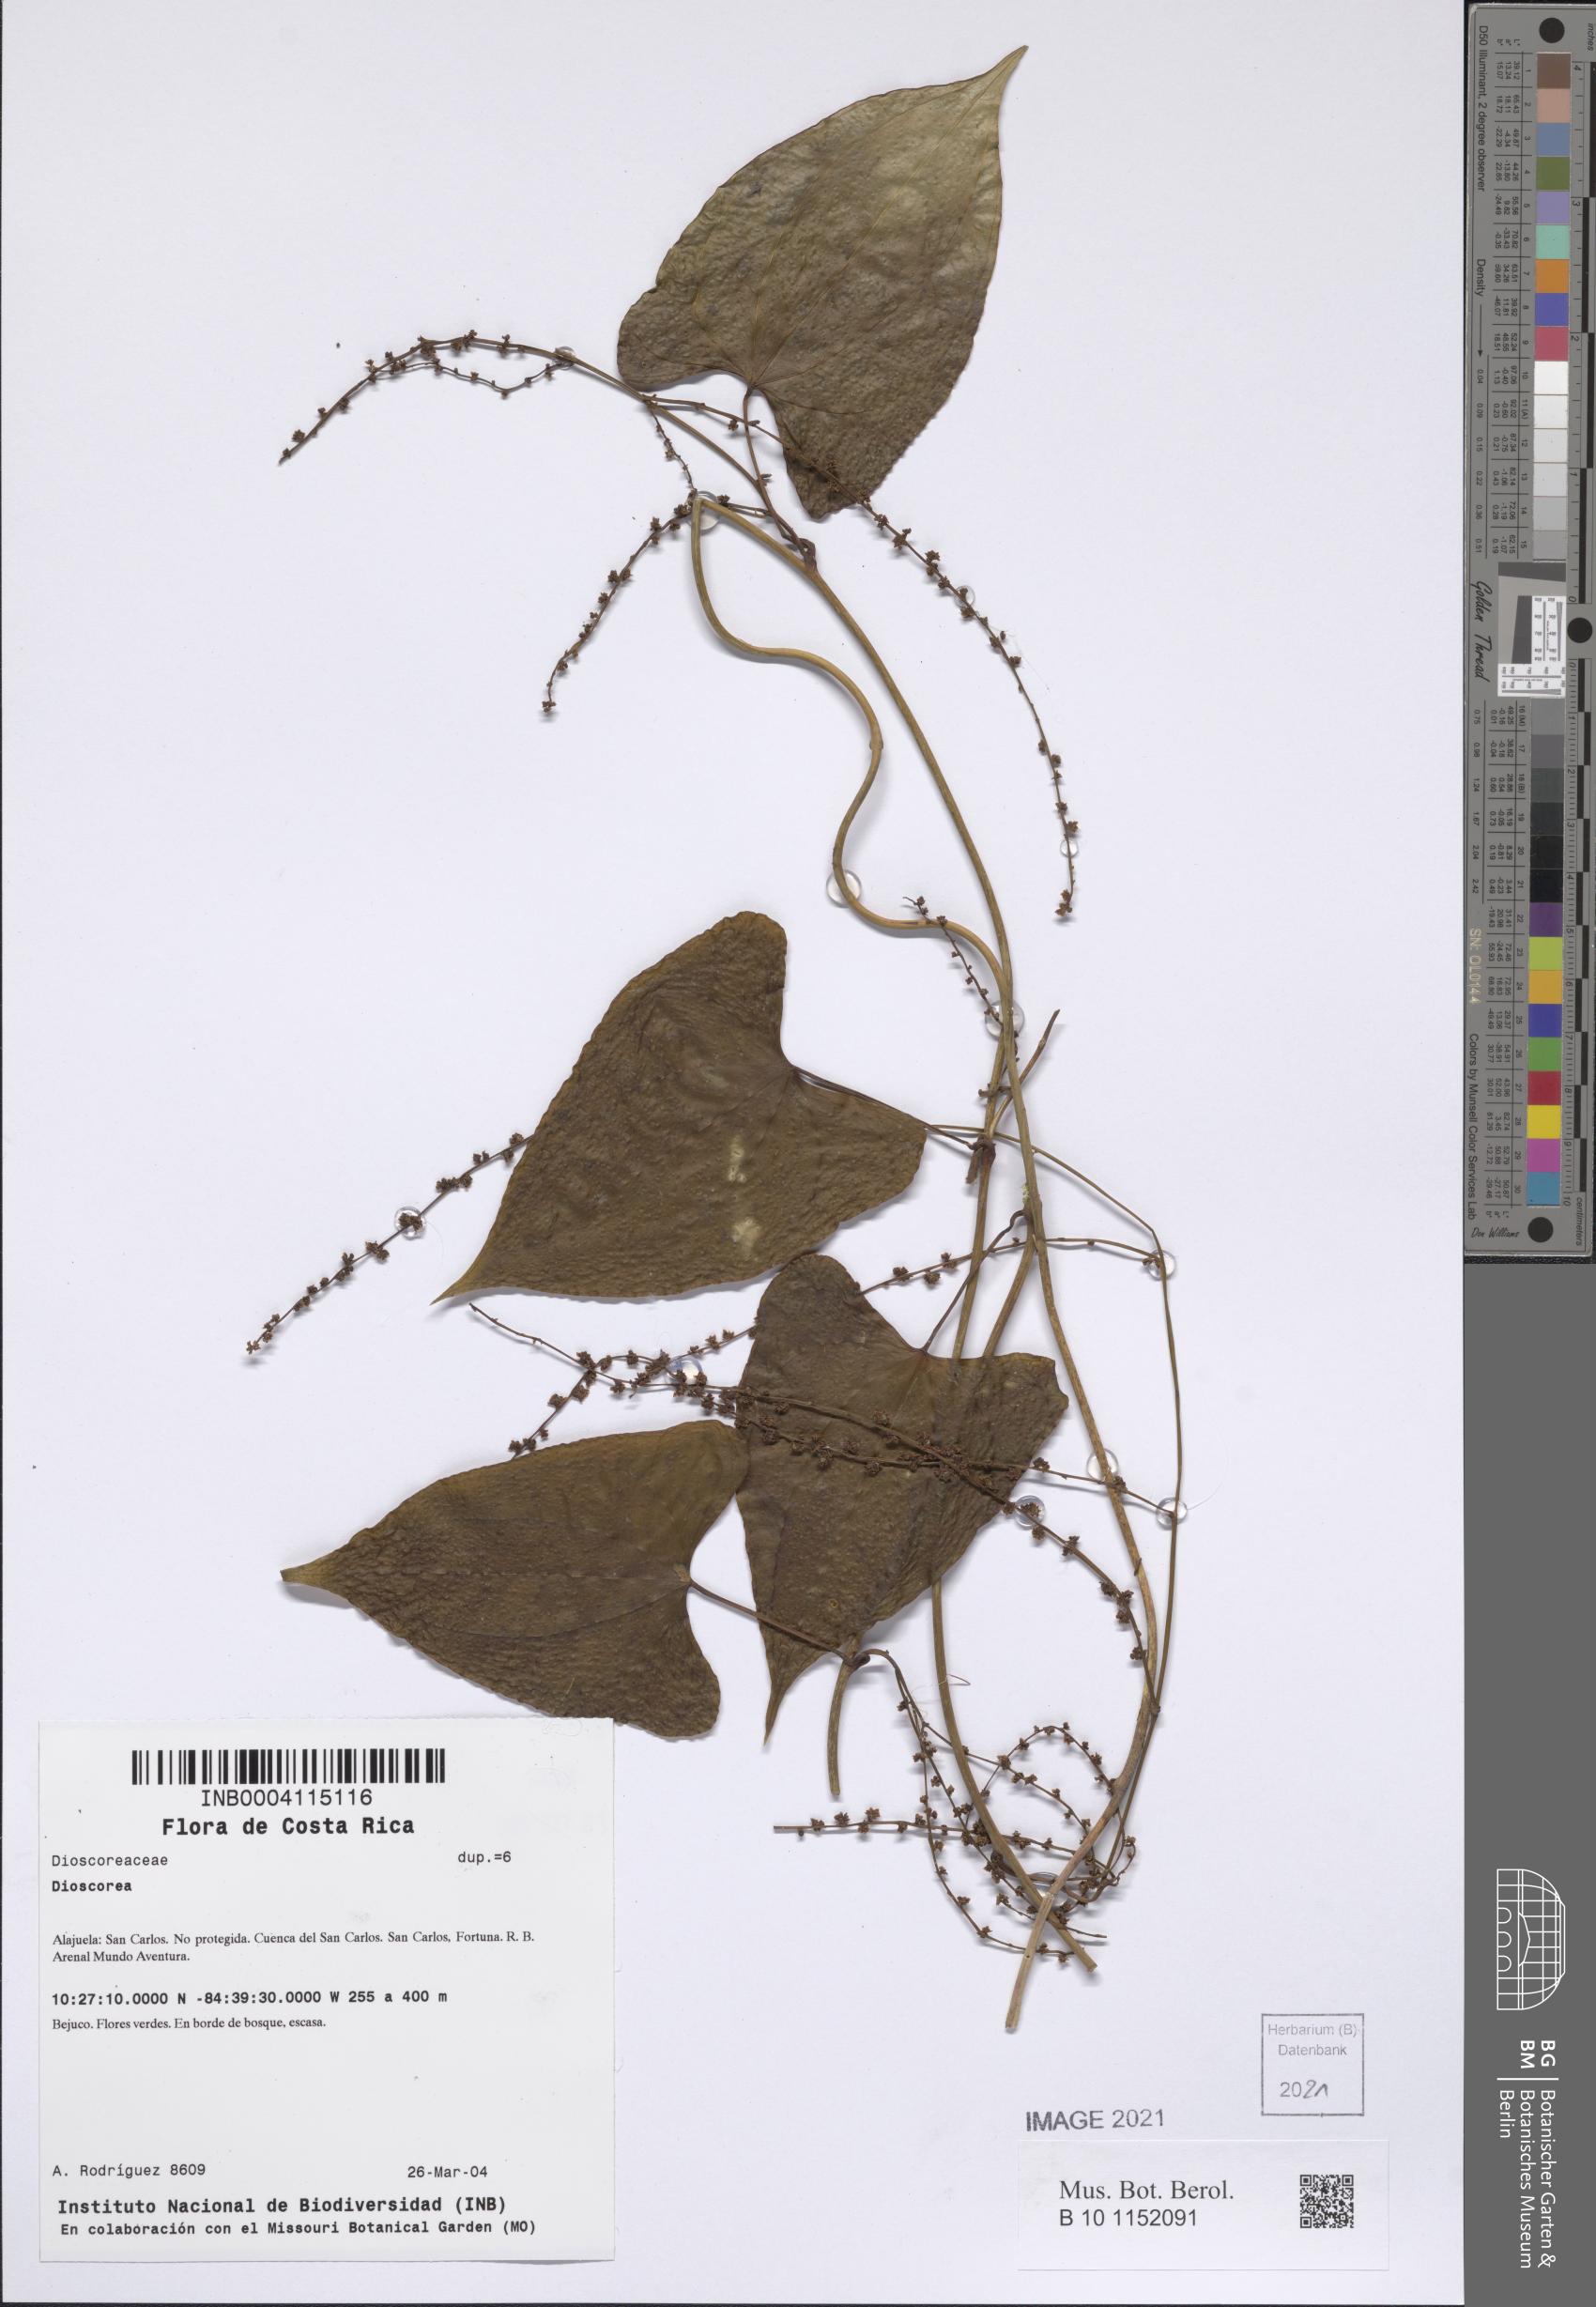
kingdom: Plantae
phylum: Tracheophyta
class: Liliopsida
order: Dioscoreales
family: Dioscoreaceae
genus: Dioscorea
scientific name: Dioscorea
